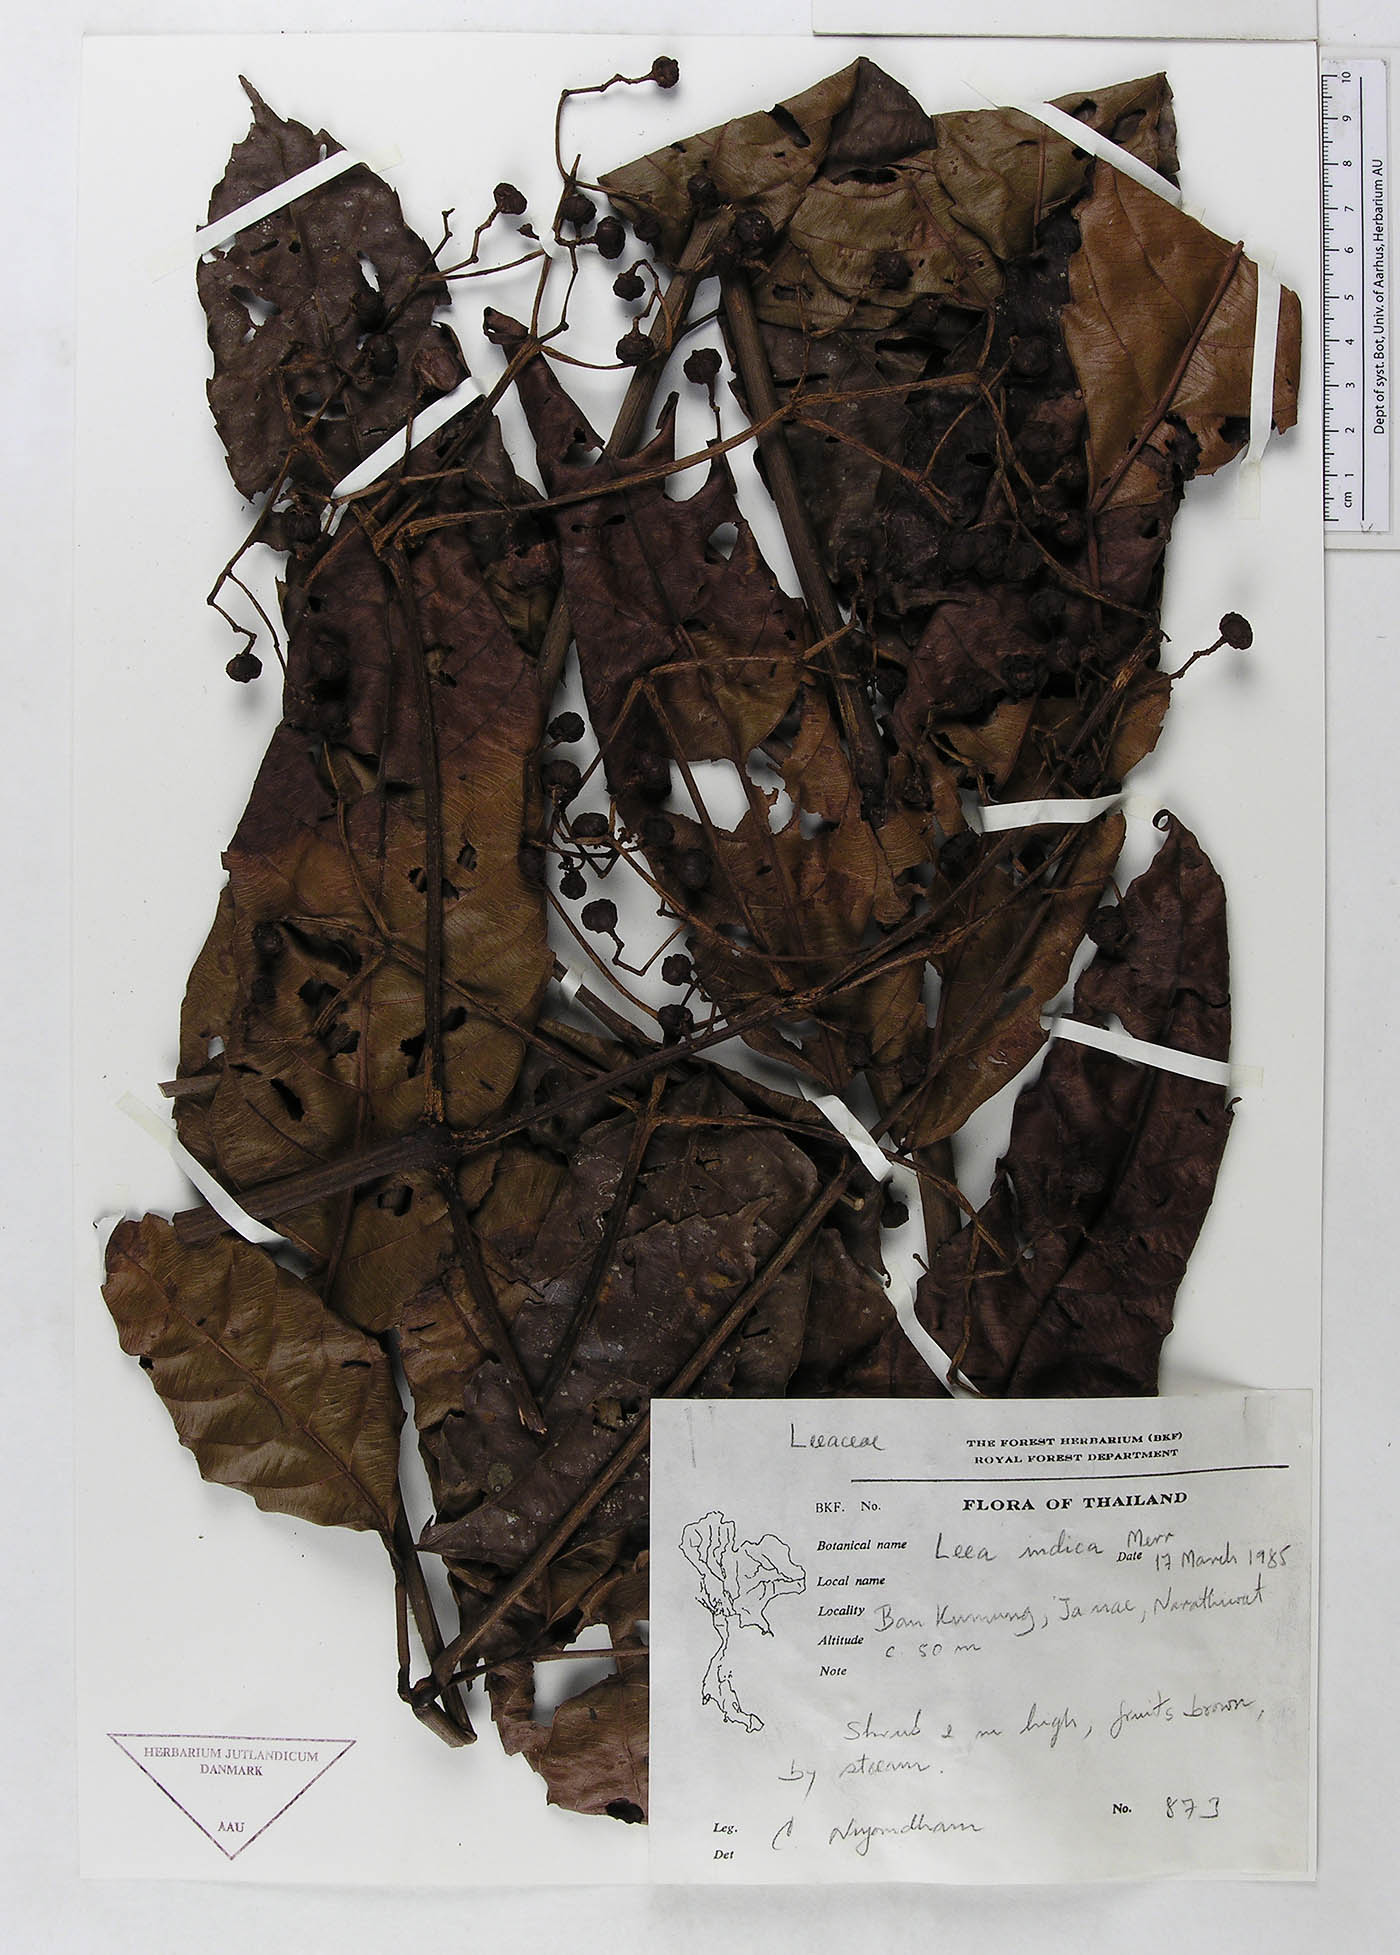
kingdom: Plantae
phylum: Tracheophyta
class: Magnoliopsida
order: Vitales
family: Vitaceae
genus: Leea
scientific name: Leea indica
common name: Bandicoot-berry
